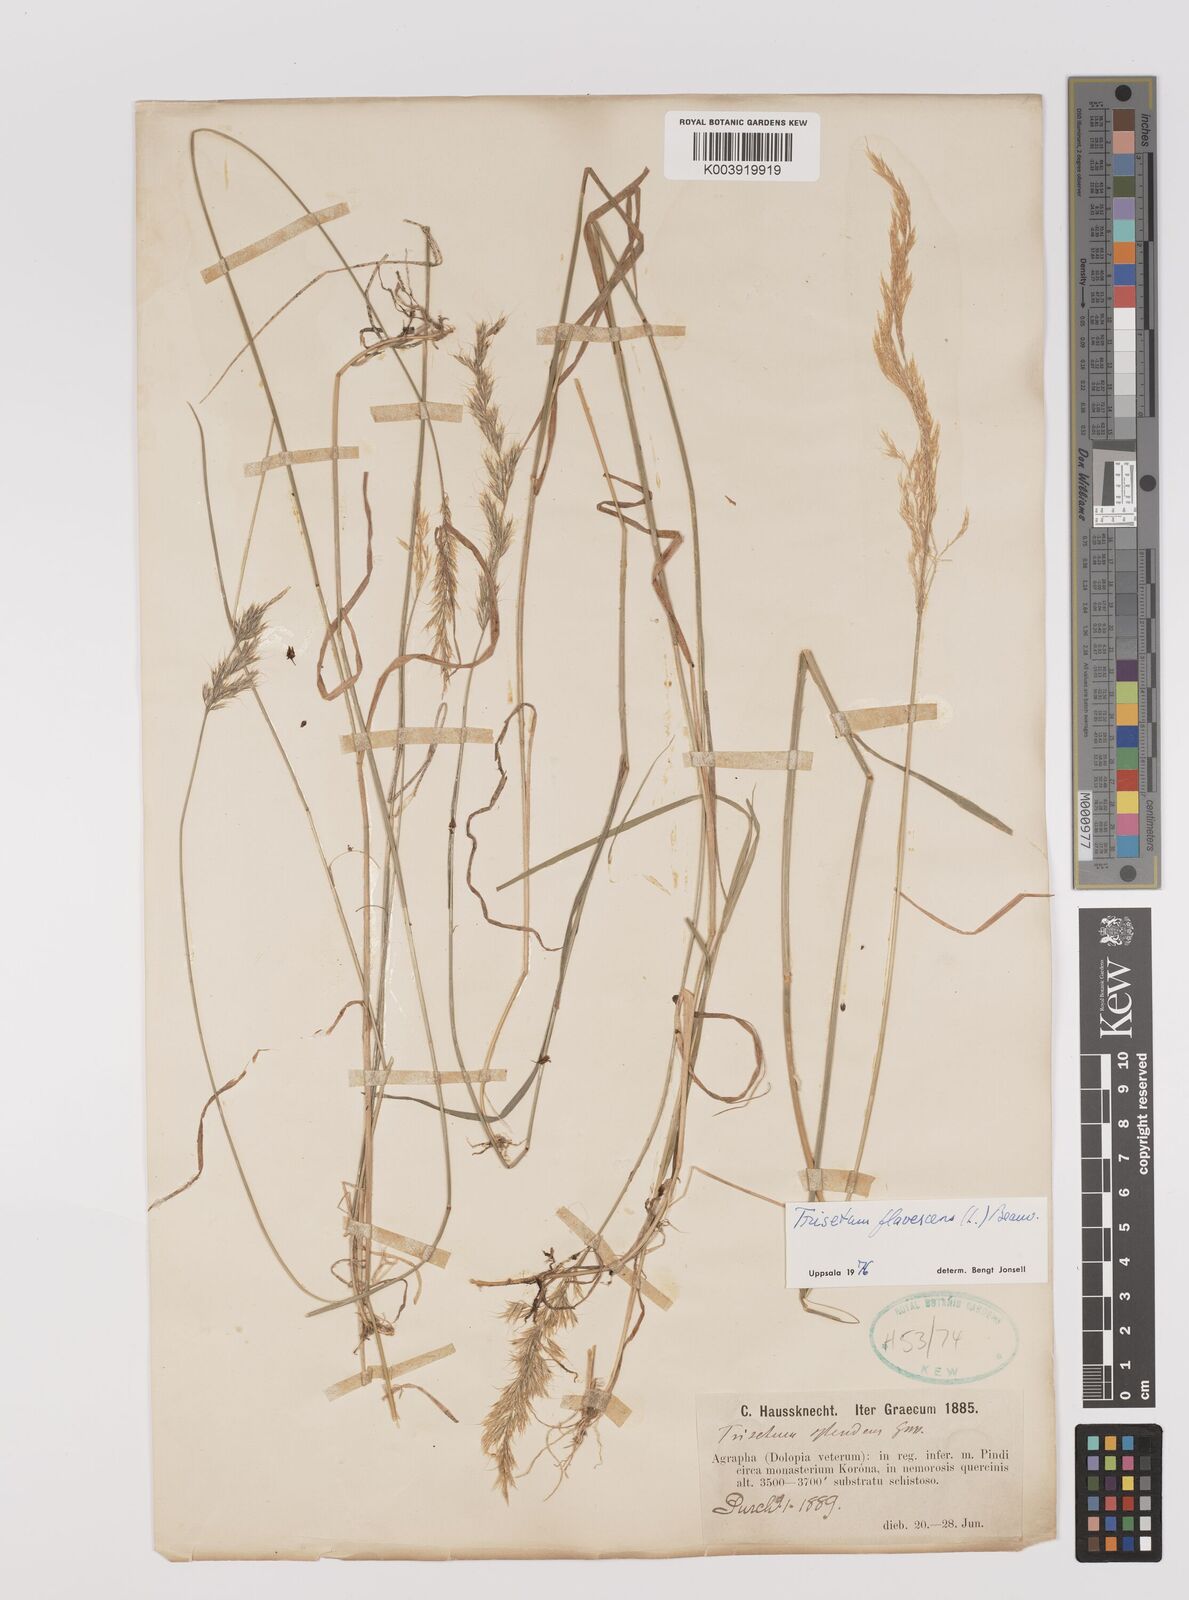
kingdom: Plantae
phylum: Tracheophyta
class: Liliopsida
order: Poales
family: Poaceae
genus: Trisetum
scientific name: Trisetum flavescens
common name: Yellow oat-grass
